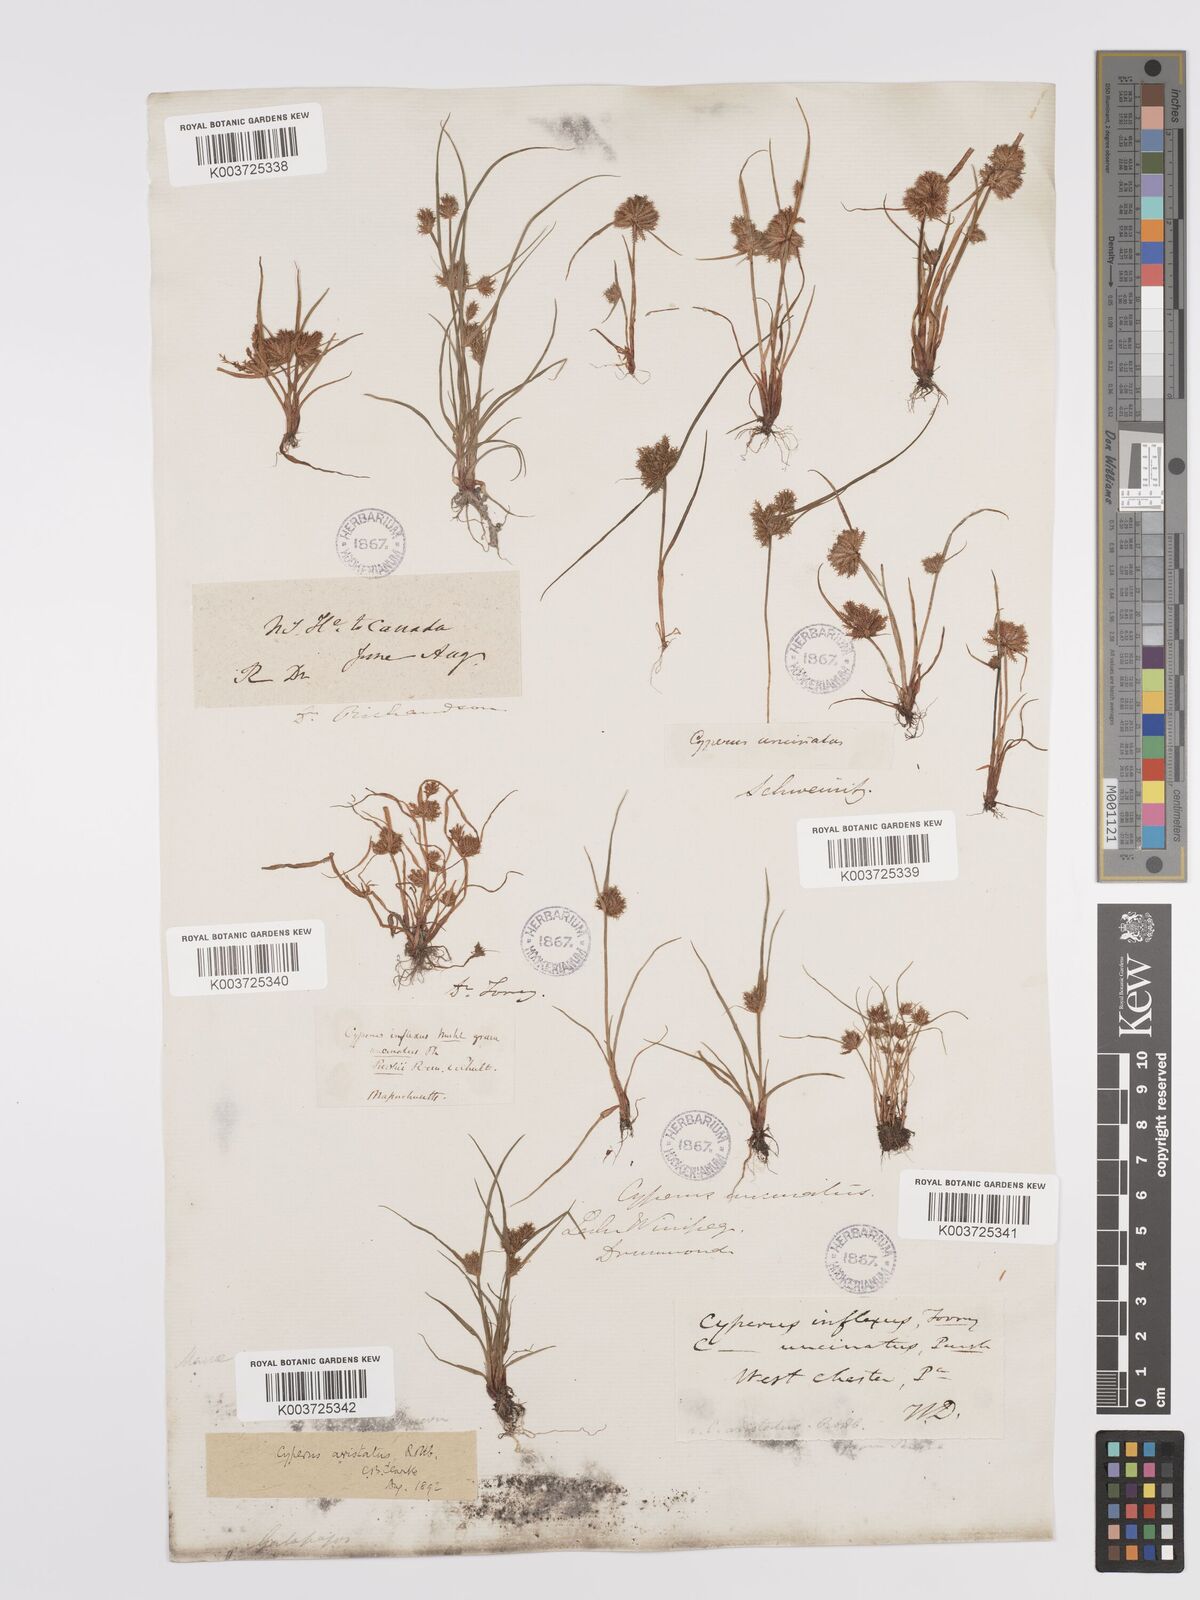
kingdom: Plantae
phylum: Tracheophyta
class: Liliopsida
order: Poales
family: Cyperaceae
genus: Cyperus
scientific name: Cyperus squarrosus
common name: Awned cyperus
